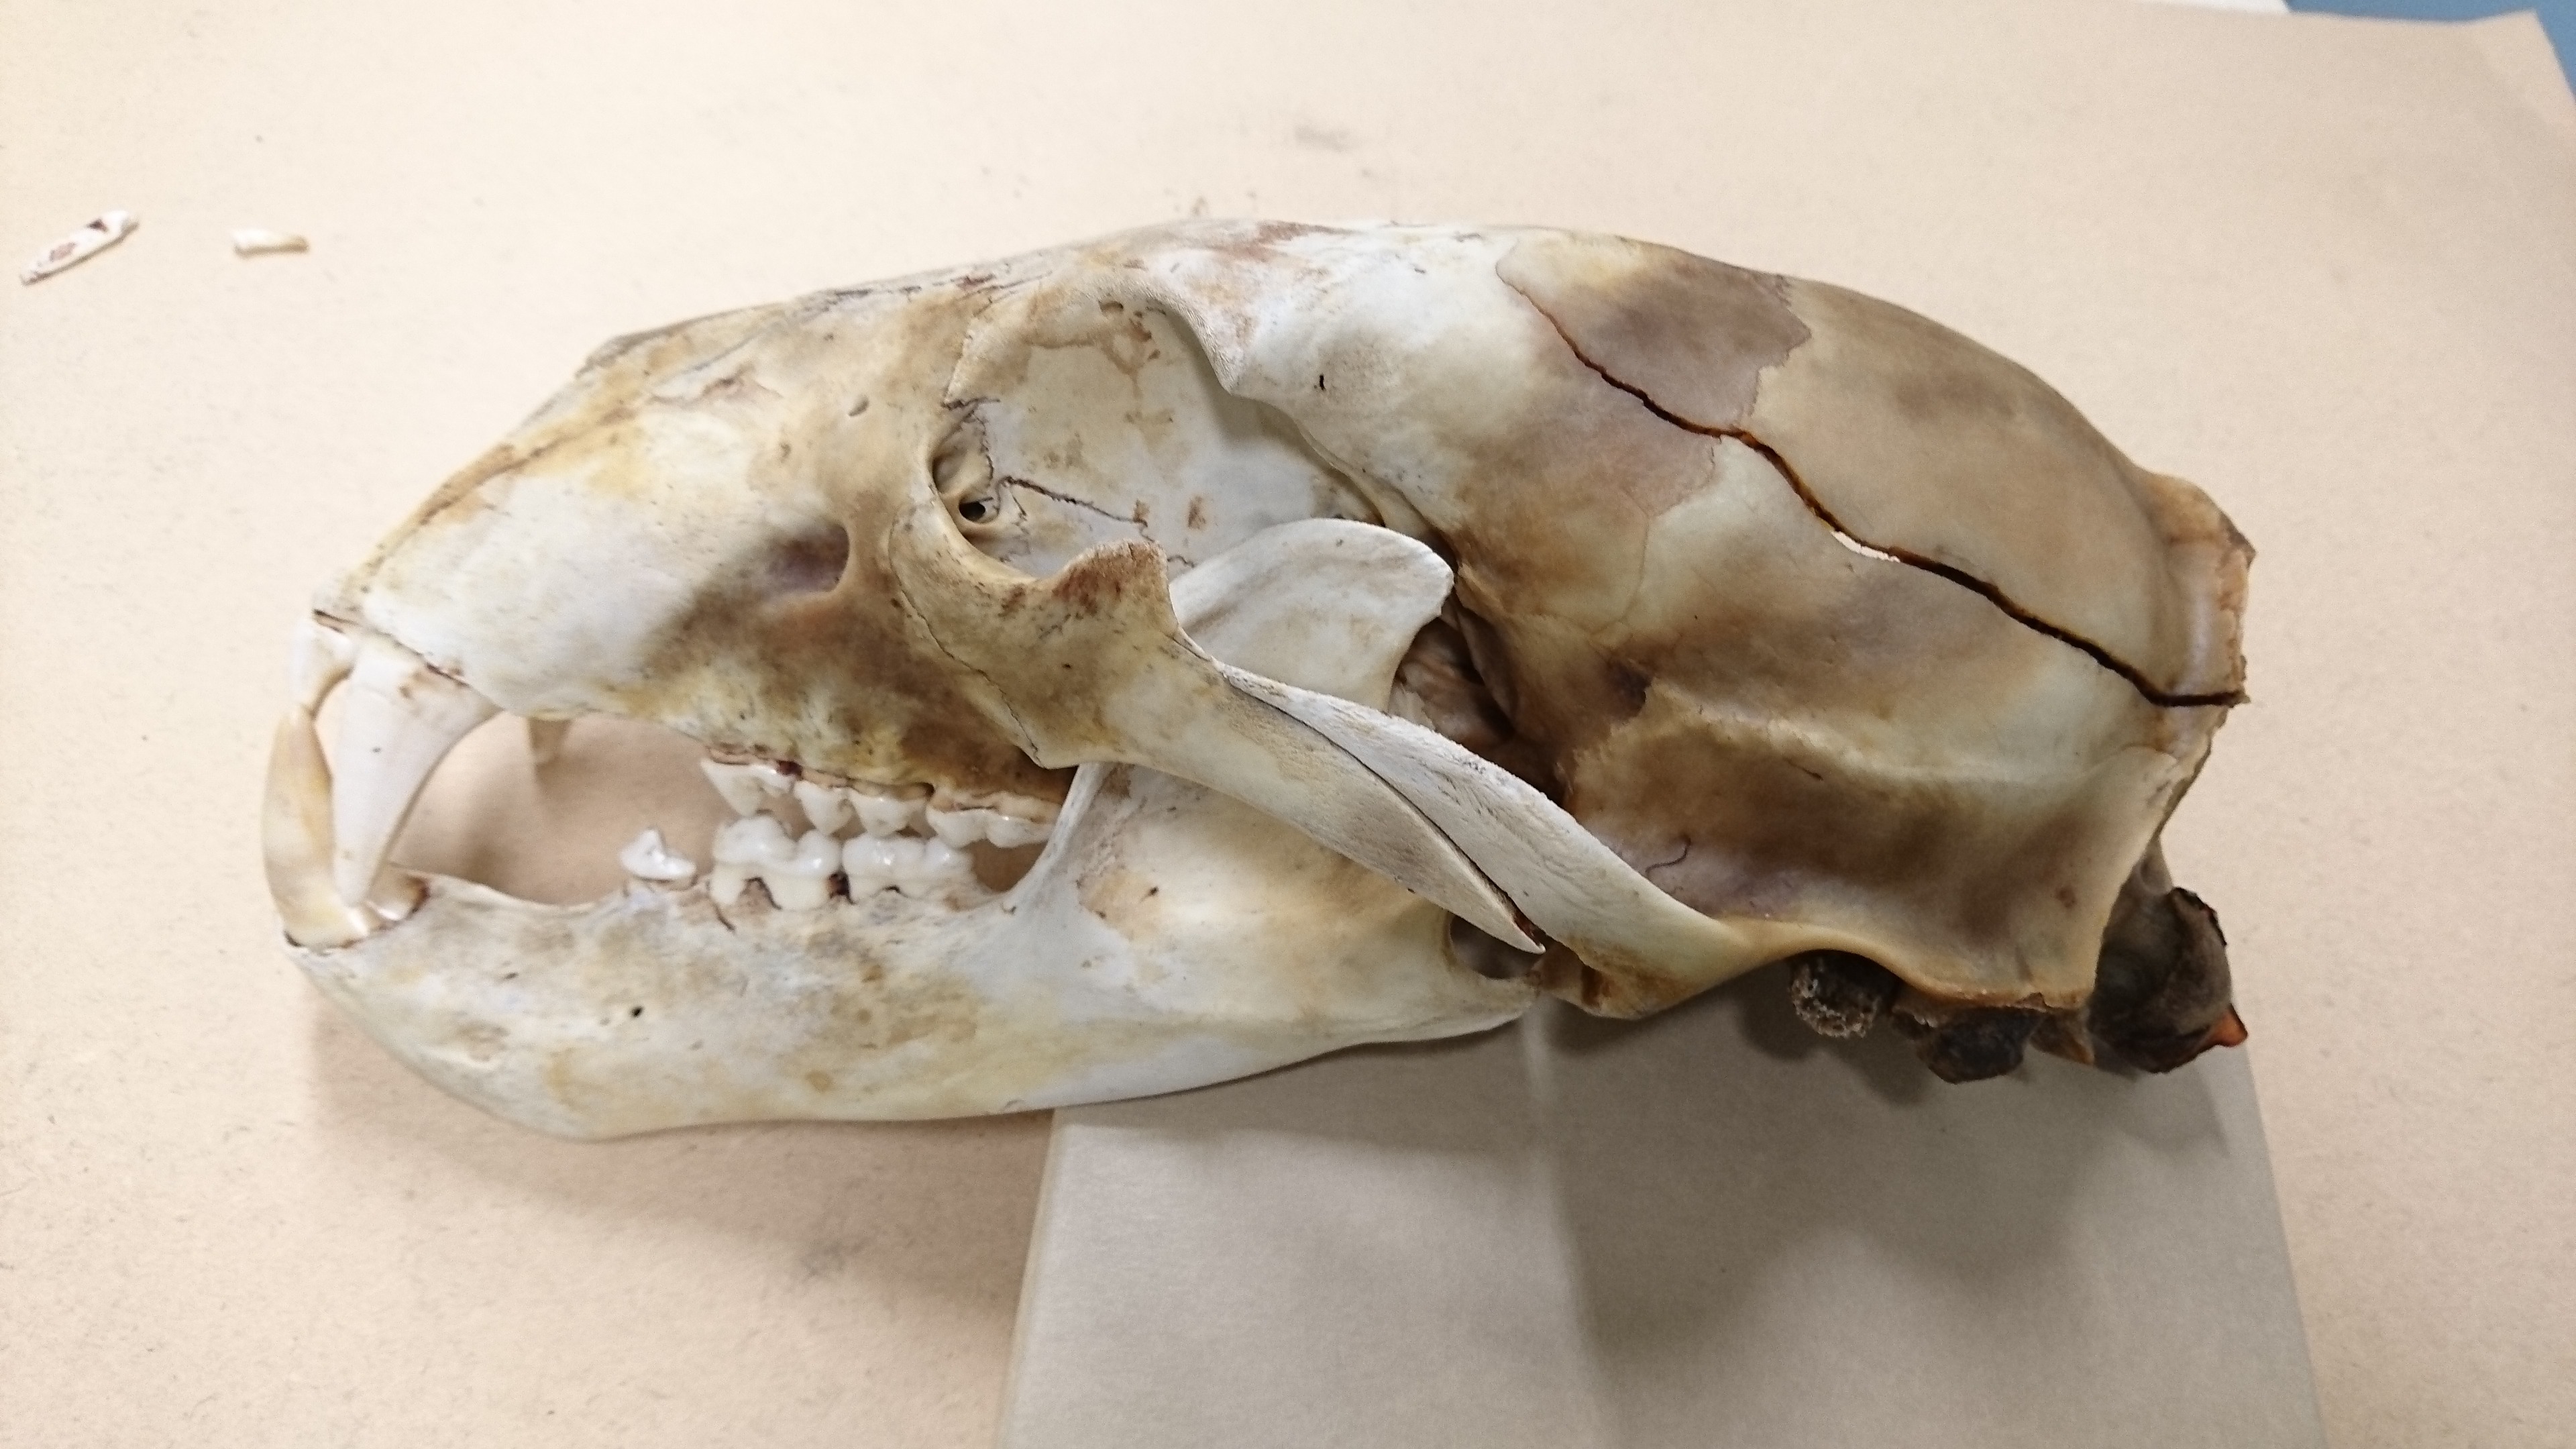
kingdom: Animalia
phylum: Chordata
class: Mammalia
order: Carnivora
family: Ursidae
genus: Ursus
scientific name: Ursus maritimus
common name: Polar bear
